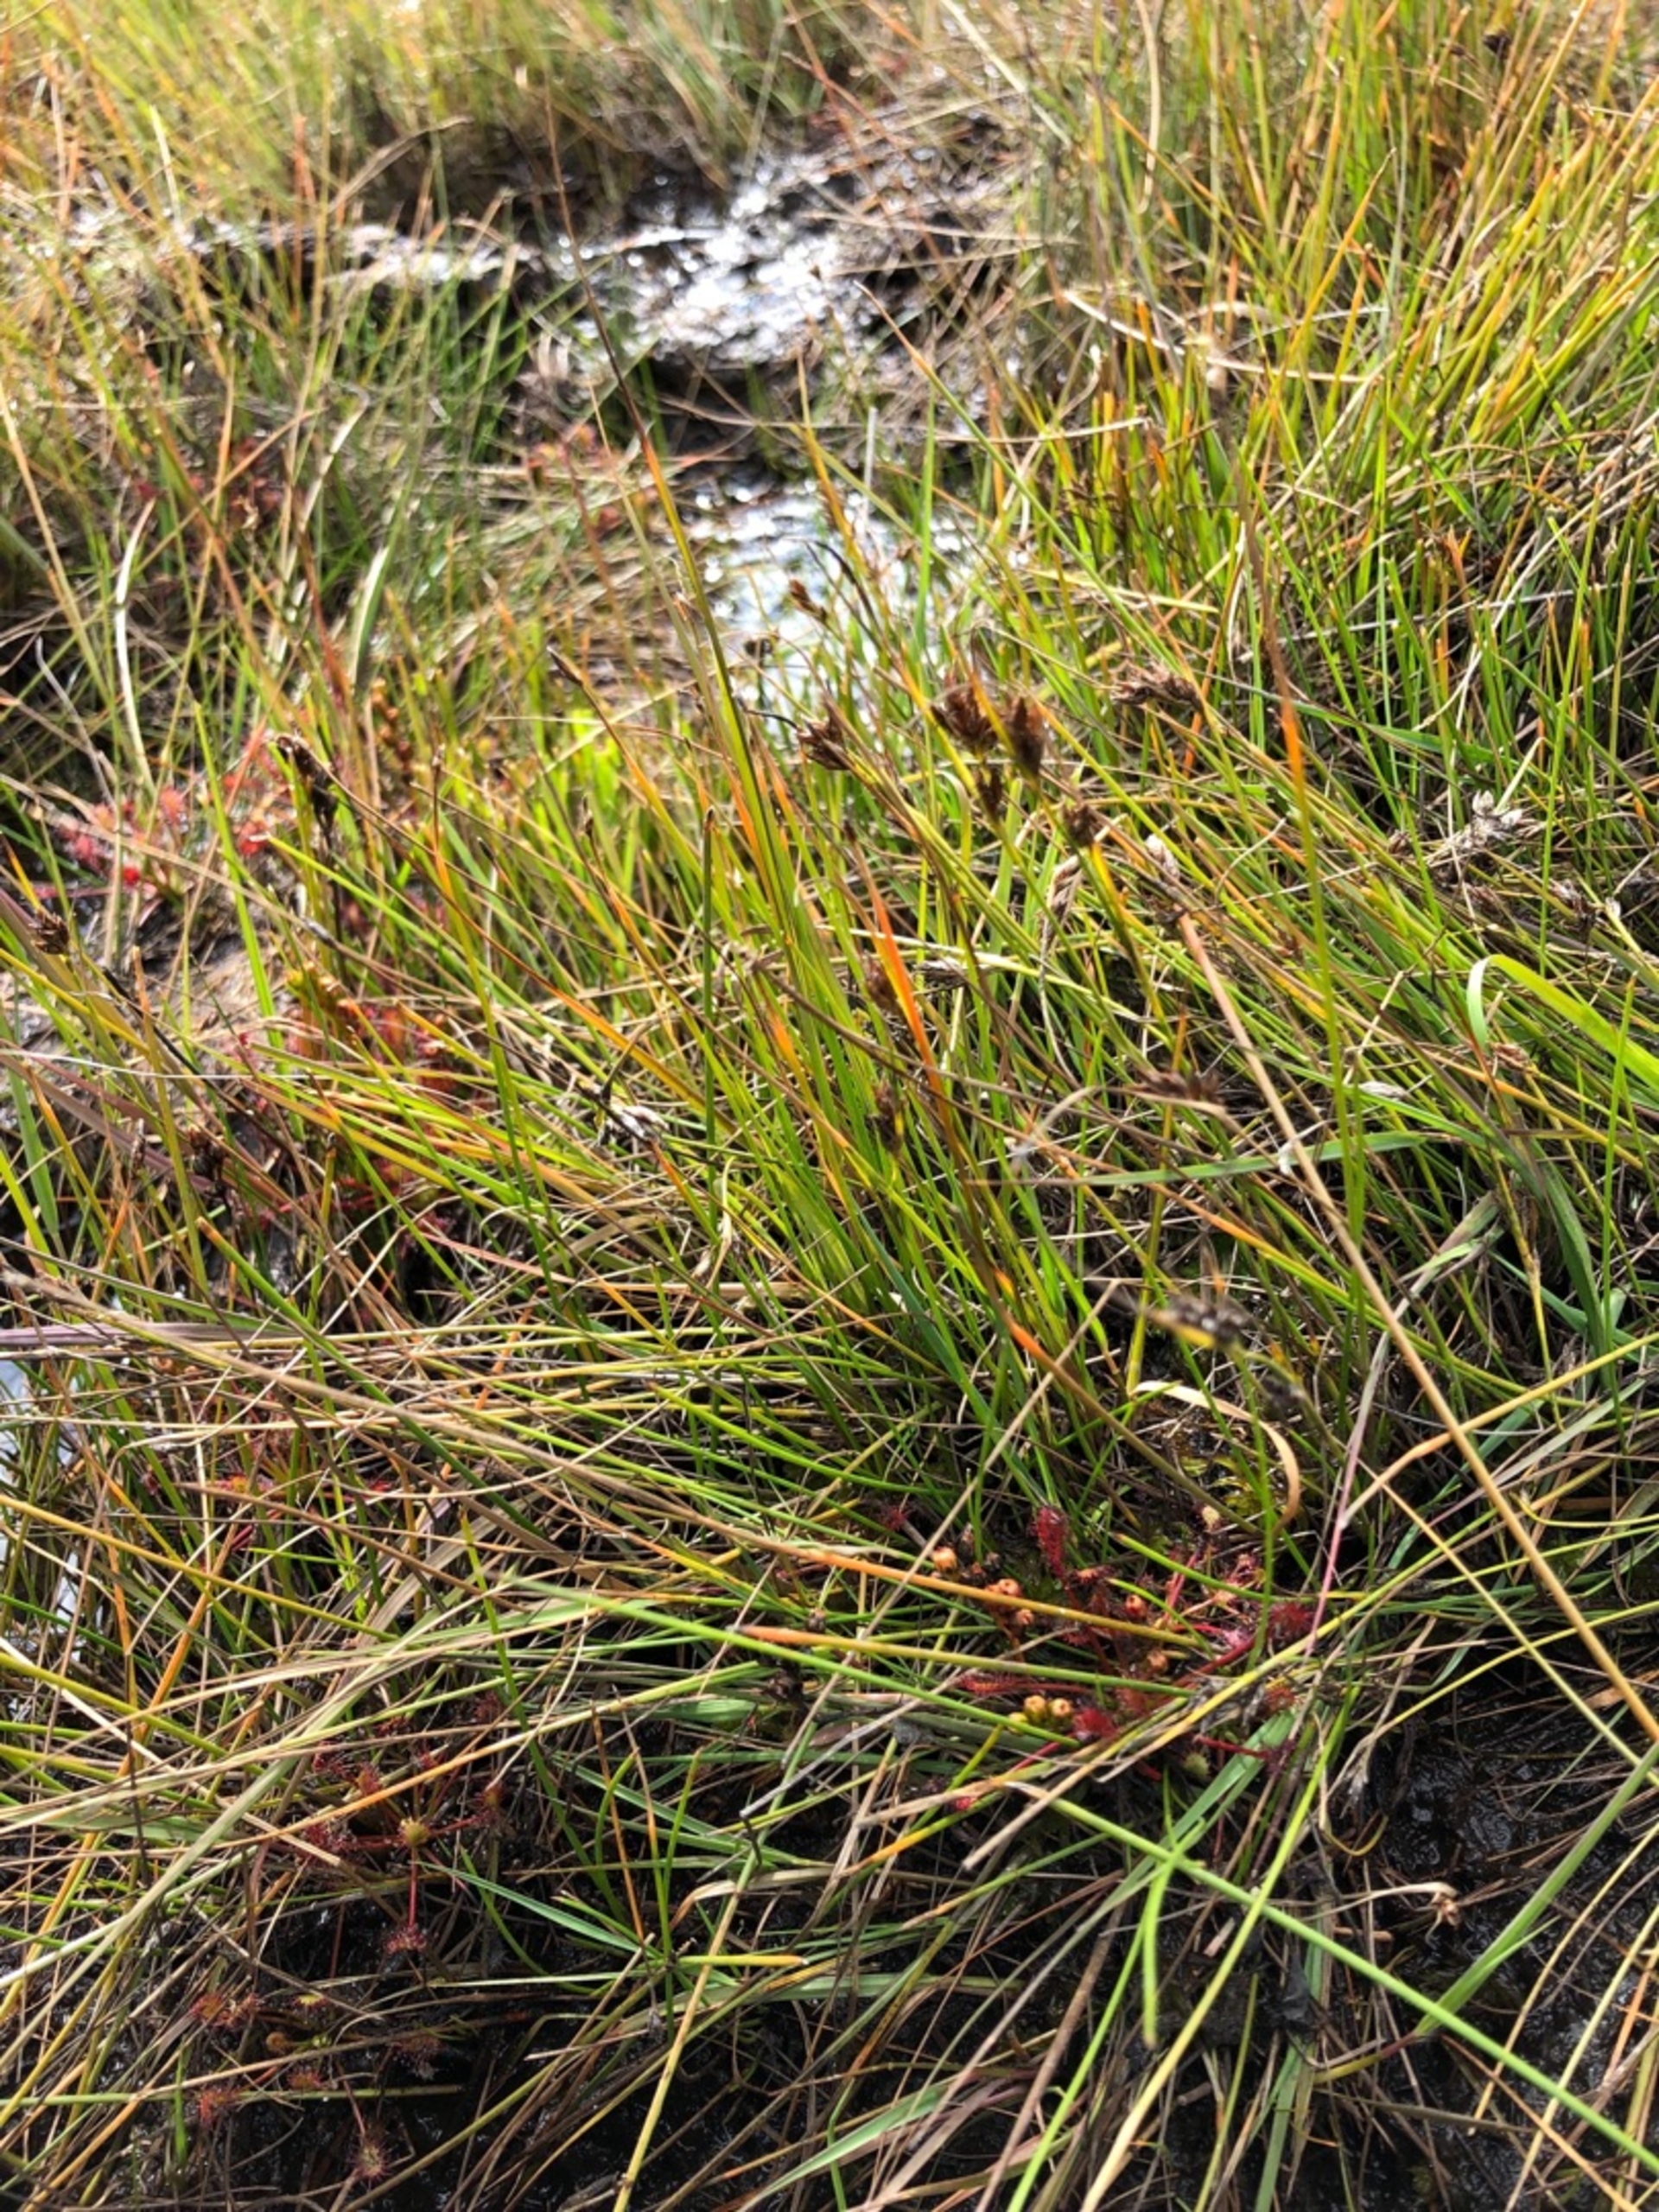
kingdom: Plantae
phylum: Tracheophyta
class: Liliopsida
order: Poales
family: Cyperaceae
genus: Rhynchospora
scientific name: Rhynchospora fusca
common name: Brun næbfrø
